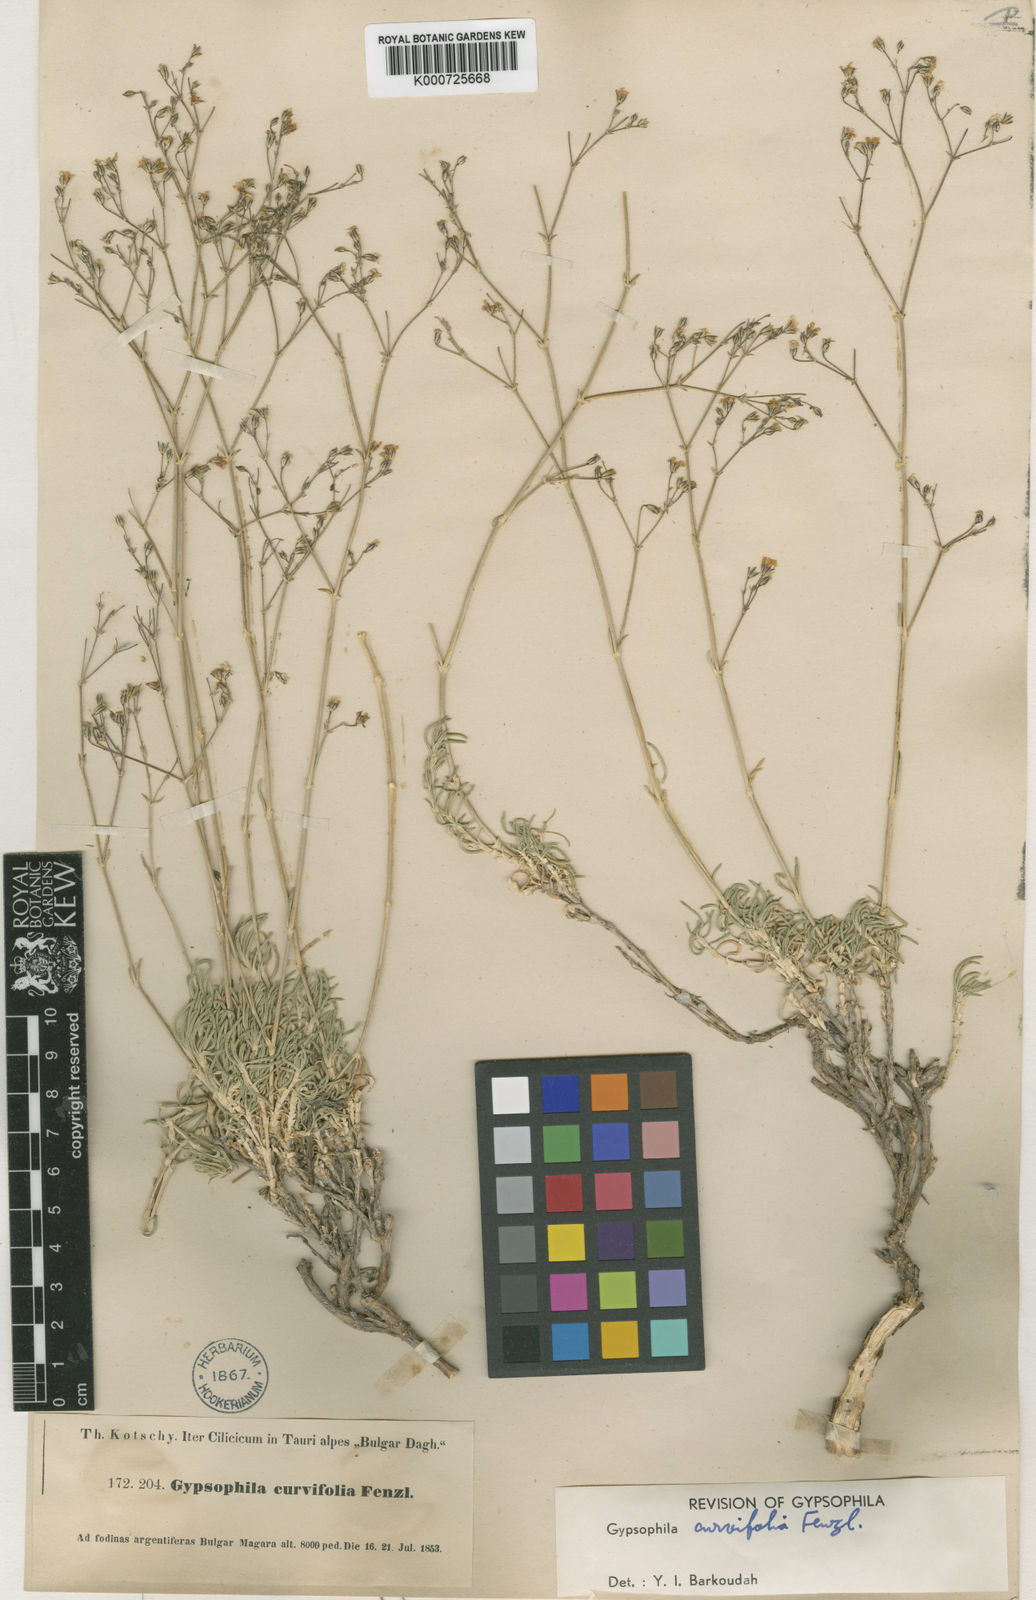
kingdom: Plantae
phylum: Tracheophyta
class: Magnoliopsida
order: Caryophyllales
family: Caryophyllaceae
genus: Gypsophila
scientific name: Gypsophila curvifolia
